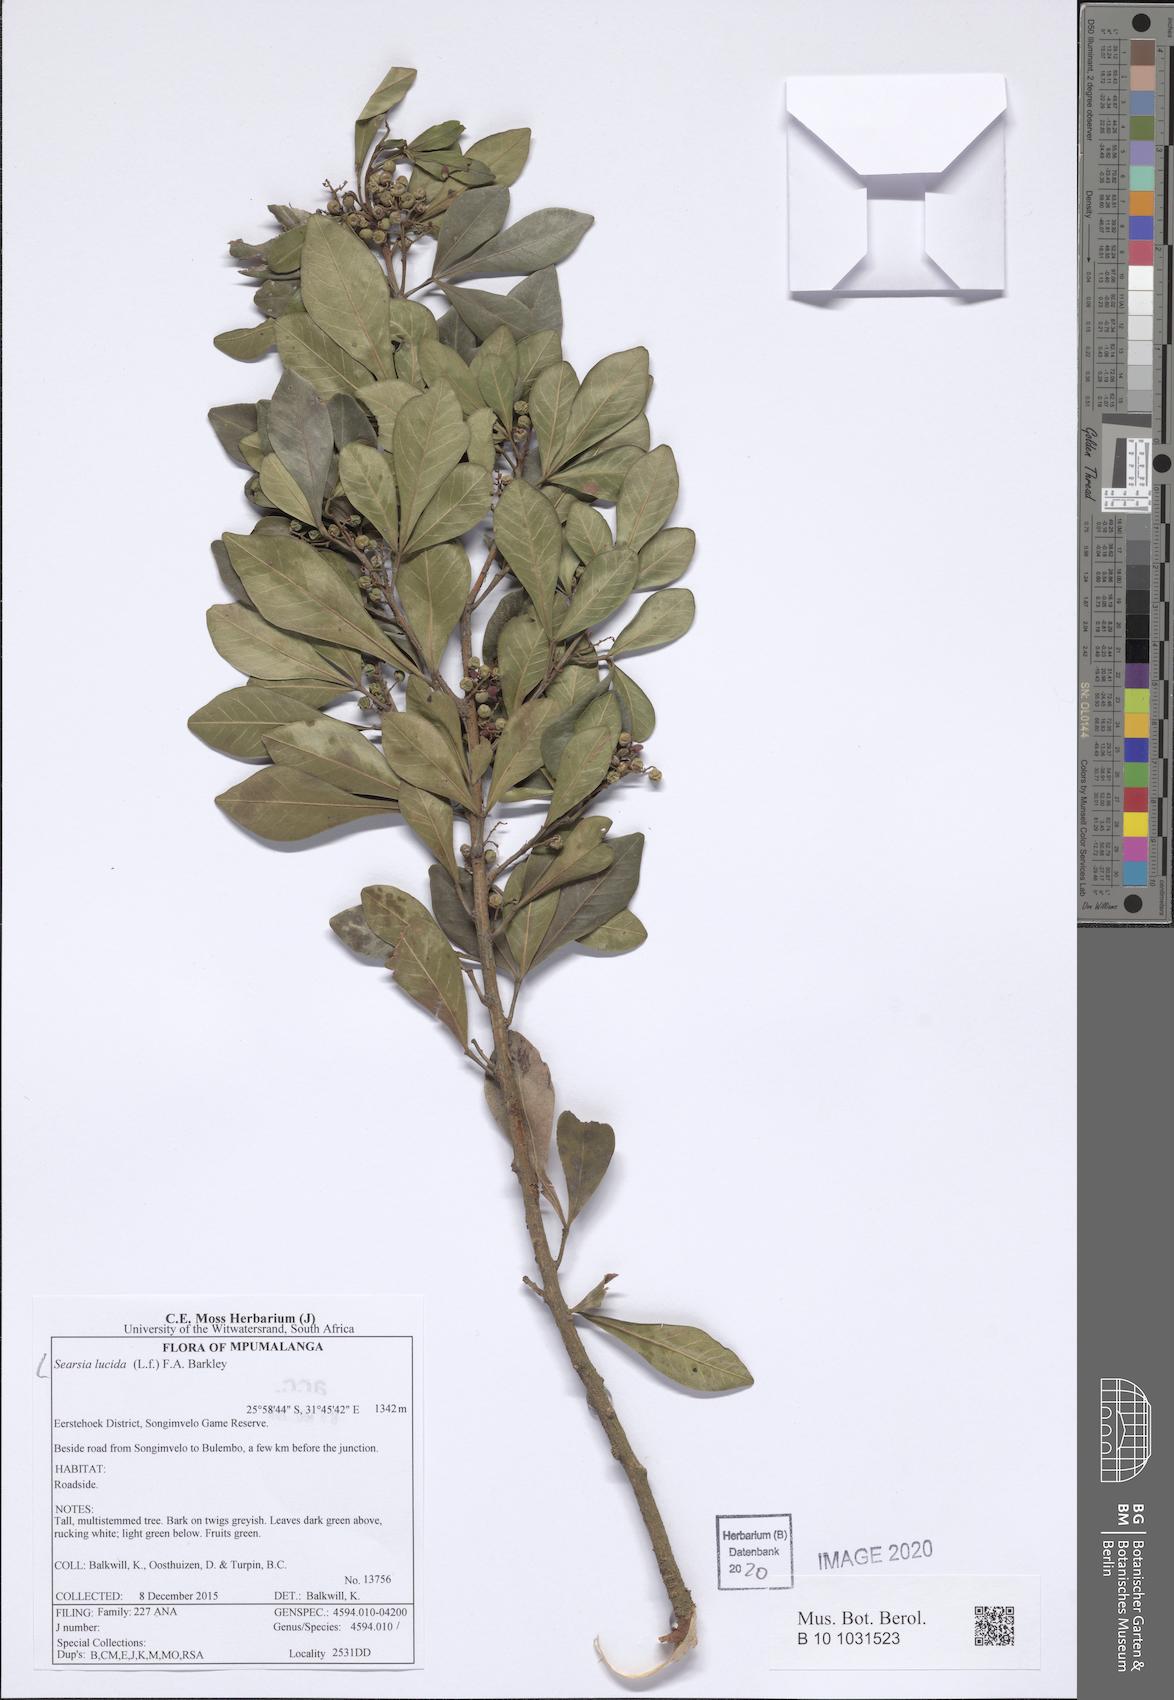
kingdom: Plantae
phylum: Tracheophyta
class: Magnoliopsida
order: Sapindales
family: Anacardiaceae
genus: Searsia
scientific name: Searsia lucida
